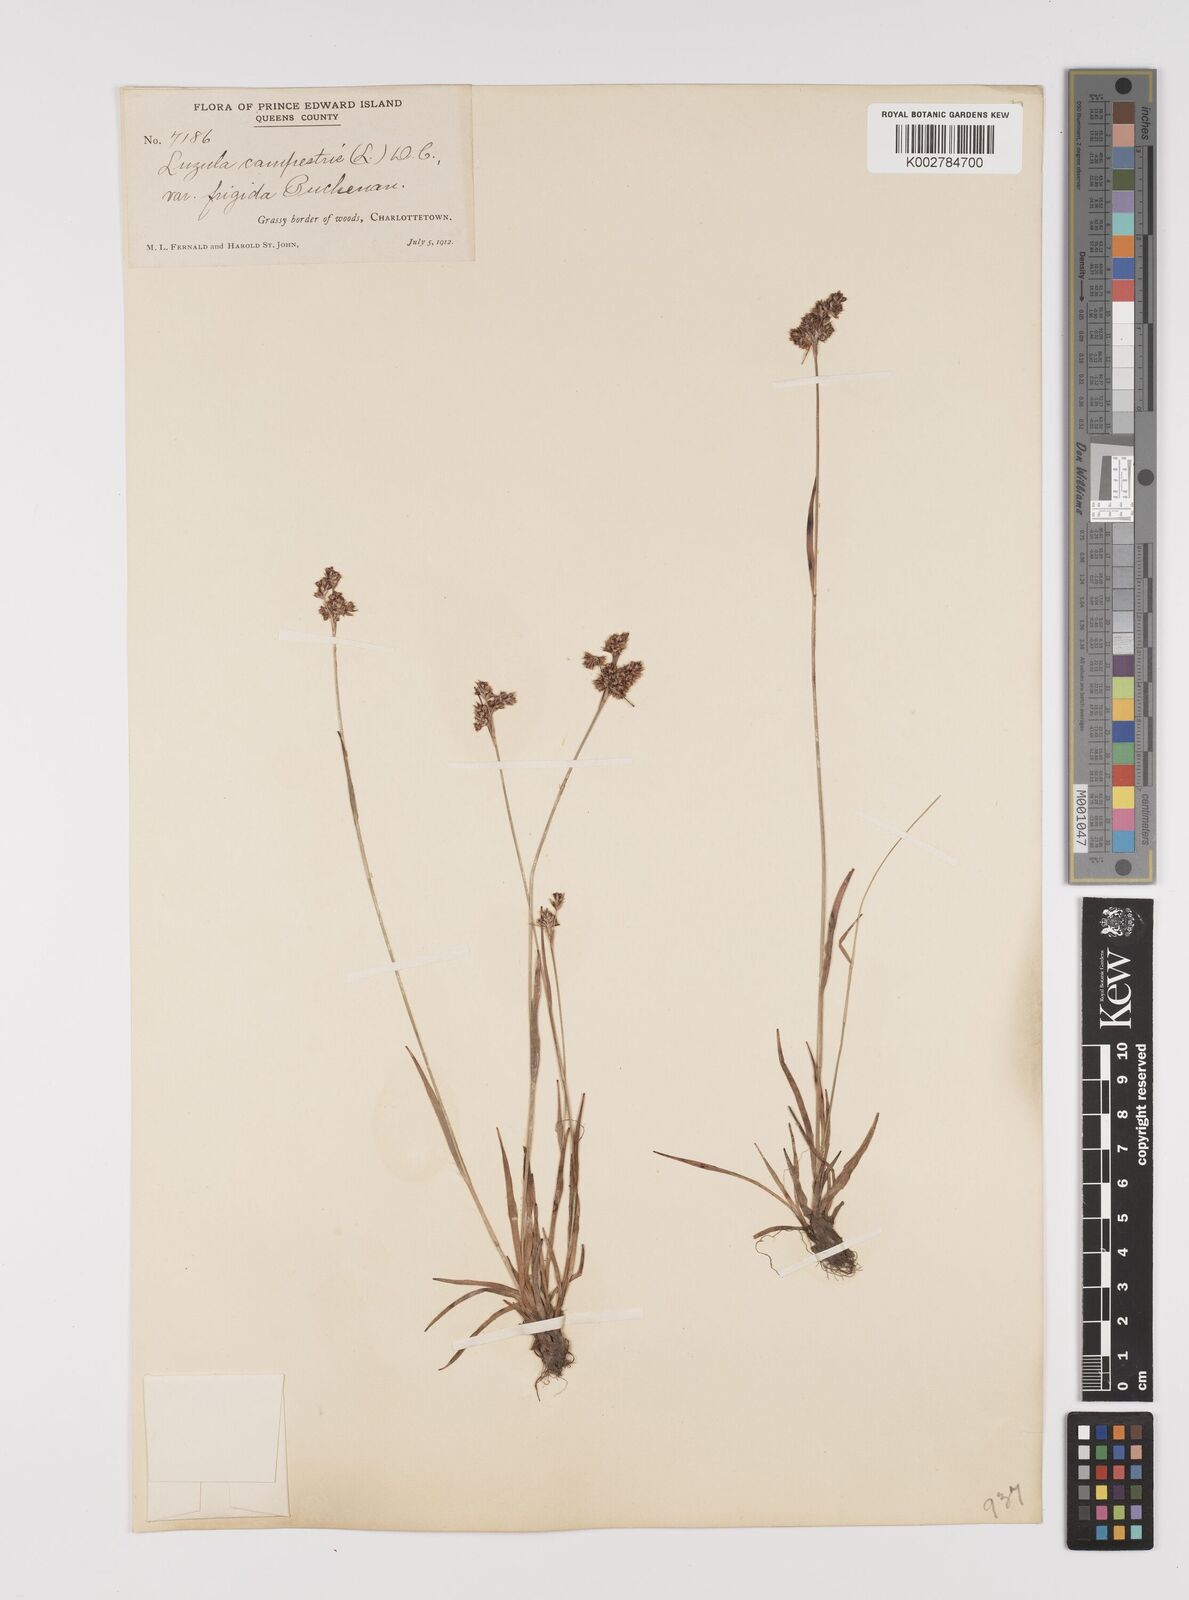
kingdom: Plantae
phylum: Tracheophyta
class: Liliopsida
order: Poales
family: Juncaceae
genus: Luzula
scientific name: Luzula multiflora
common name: Heath wood-rush
